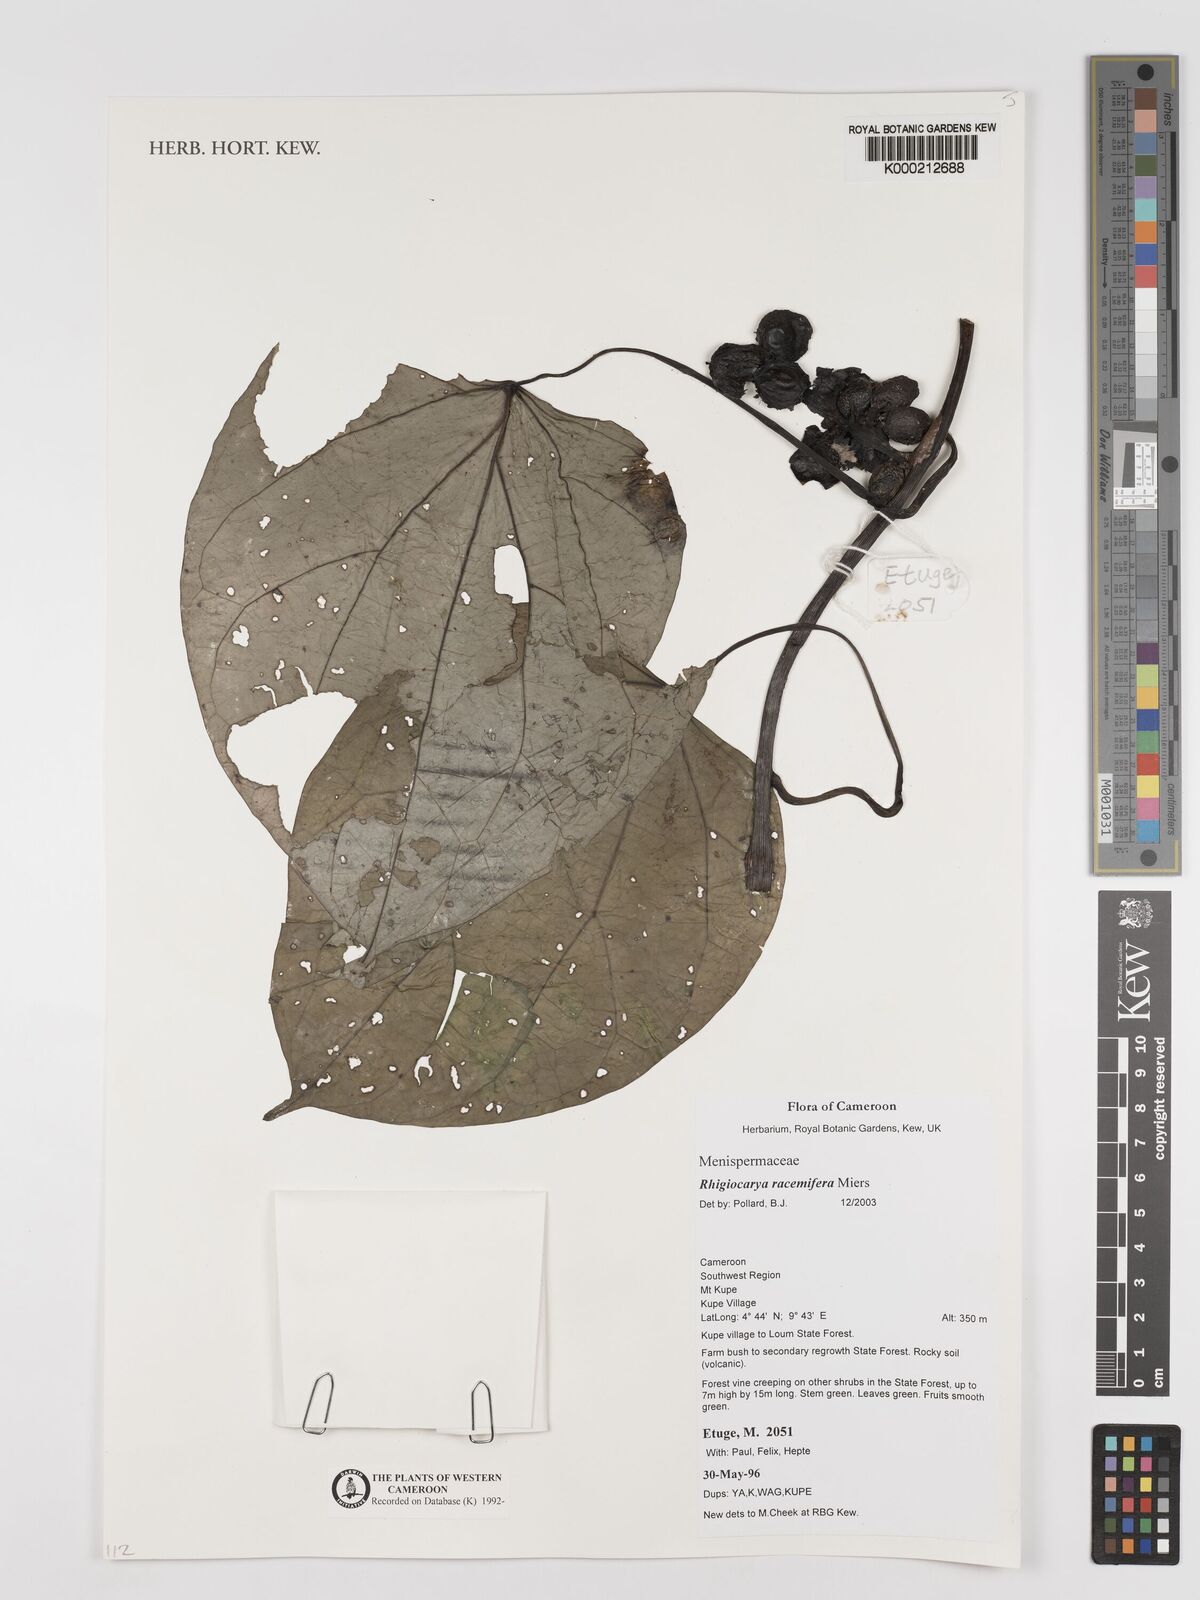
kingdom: Plantae
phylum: Tracheophyta
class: Magnoliopsida
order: Ranunculales
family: Menispermaceae
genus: Rhigiocarya
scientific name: Rhigiocarya racemifera
